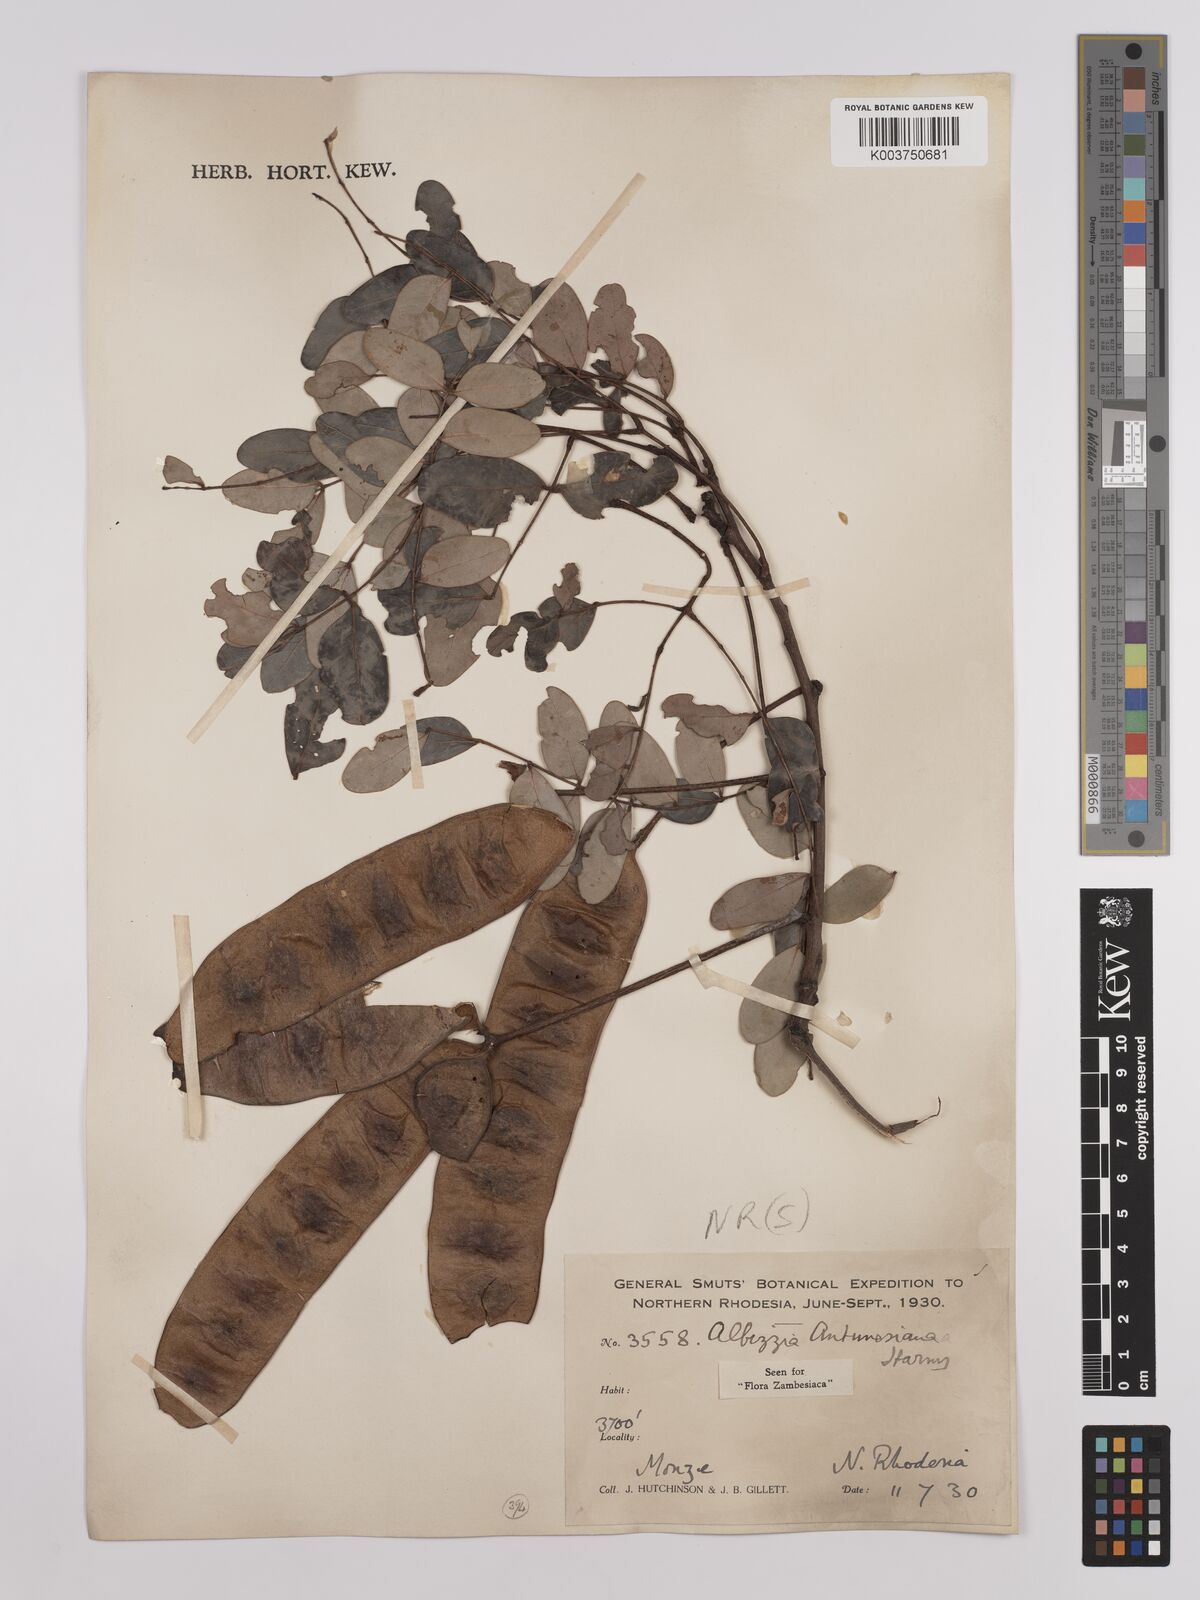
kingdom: Plantae
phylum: Tracheophyta
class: Magnoliopsida
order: Fabales
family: Fabaceae
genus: Albizia
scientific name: Albizia antunesiana
